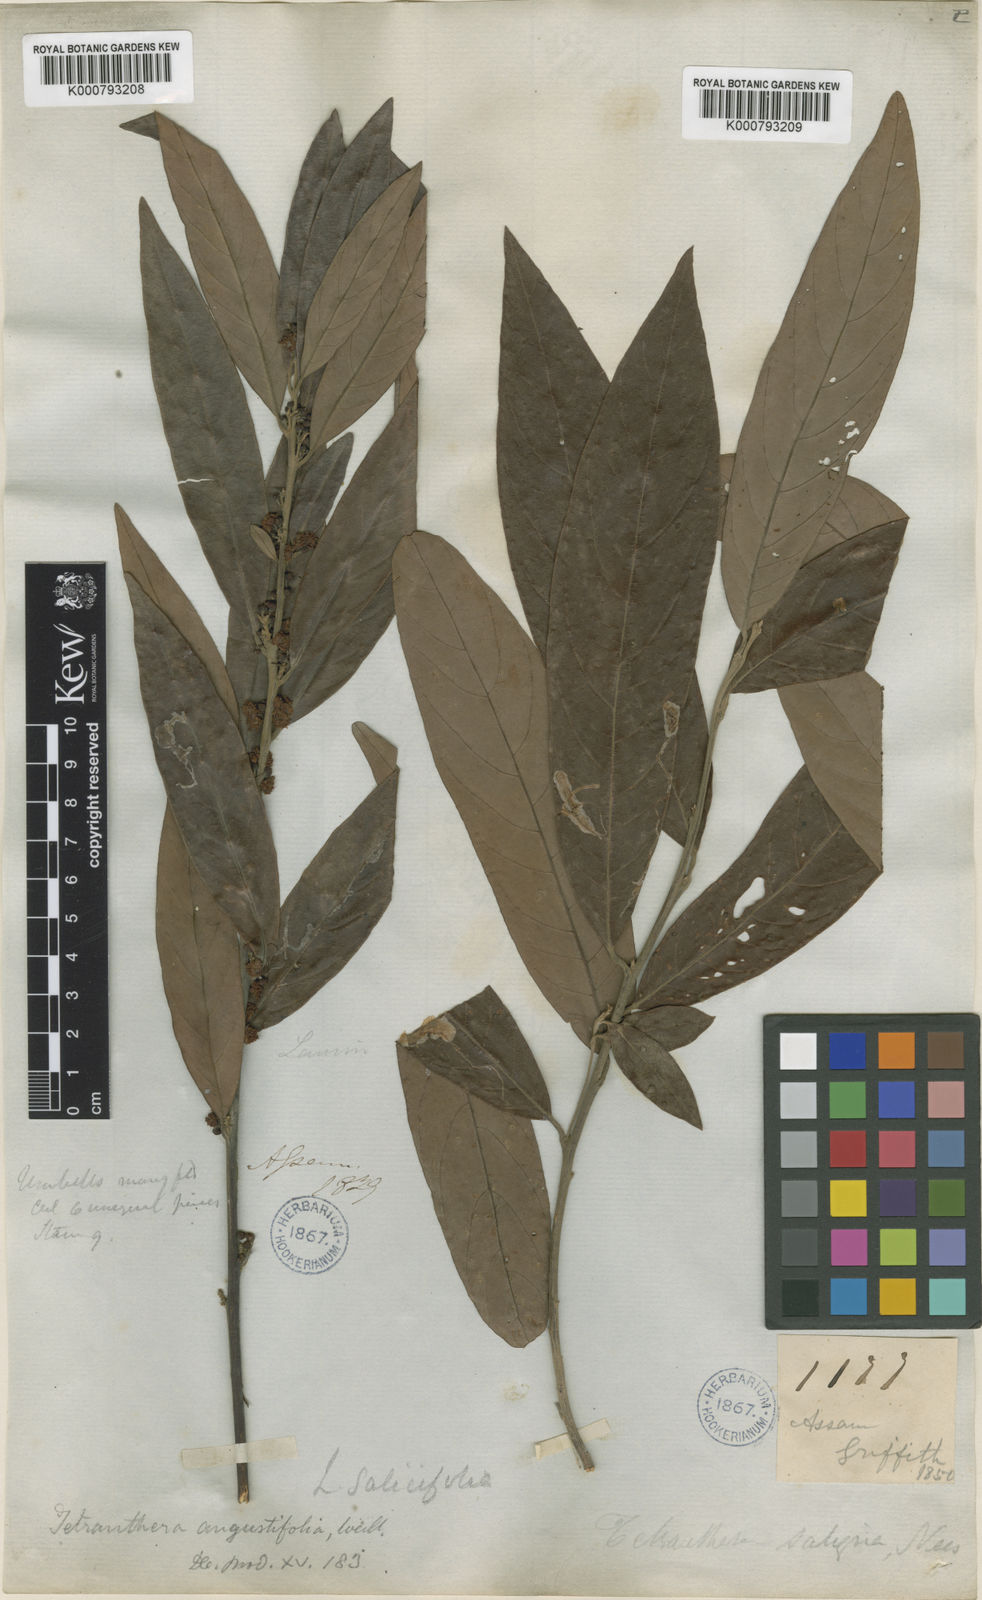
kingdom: Plantae
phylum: Tracheophyta
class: Magnoliopsida
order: Laurales
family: Lauraceae
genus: Litsea
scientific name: Litsea salicifolia
